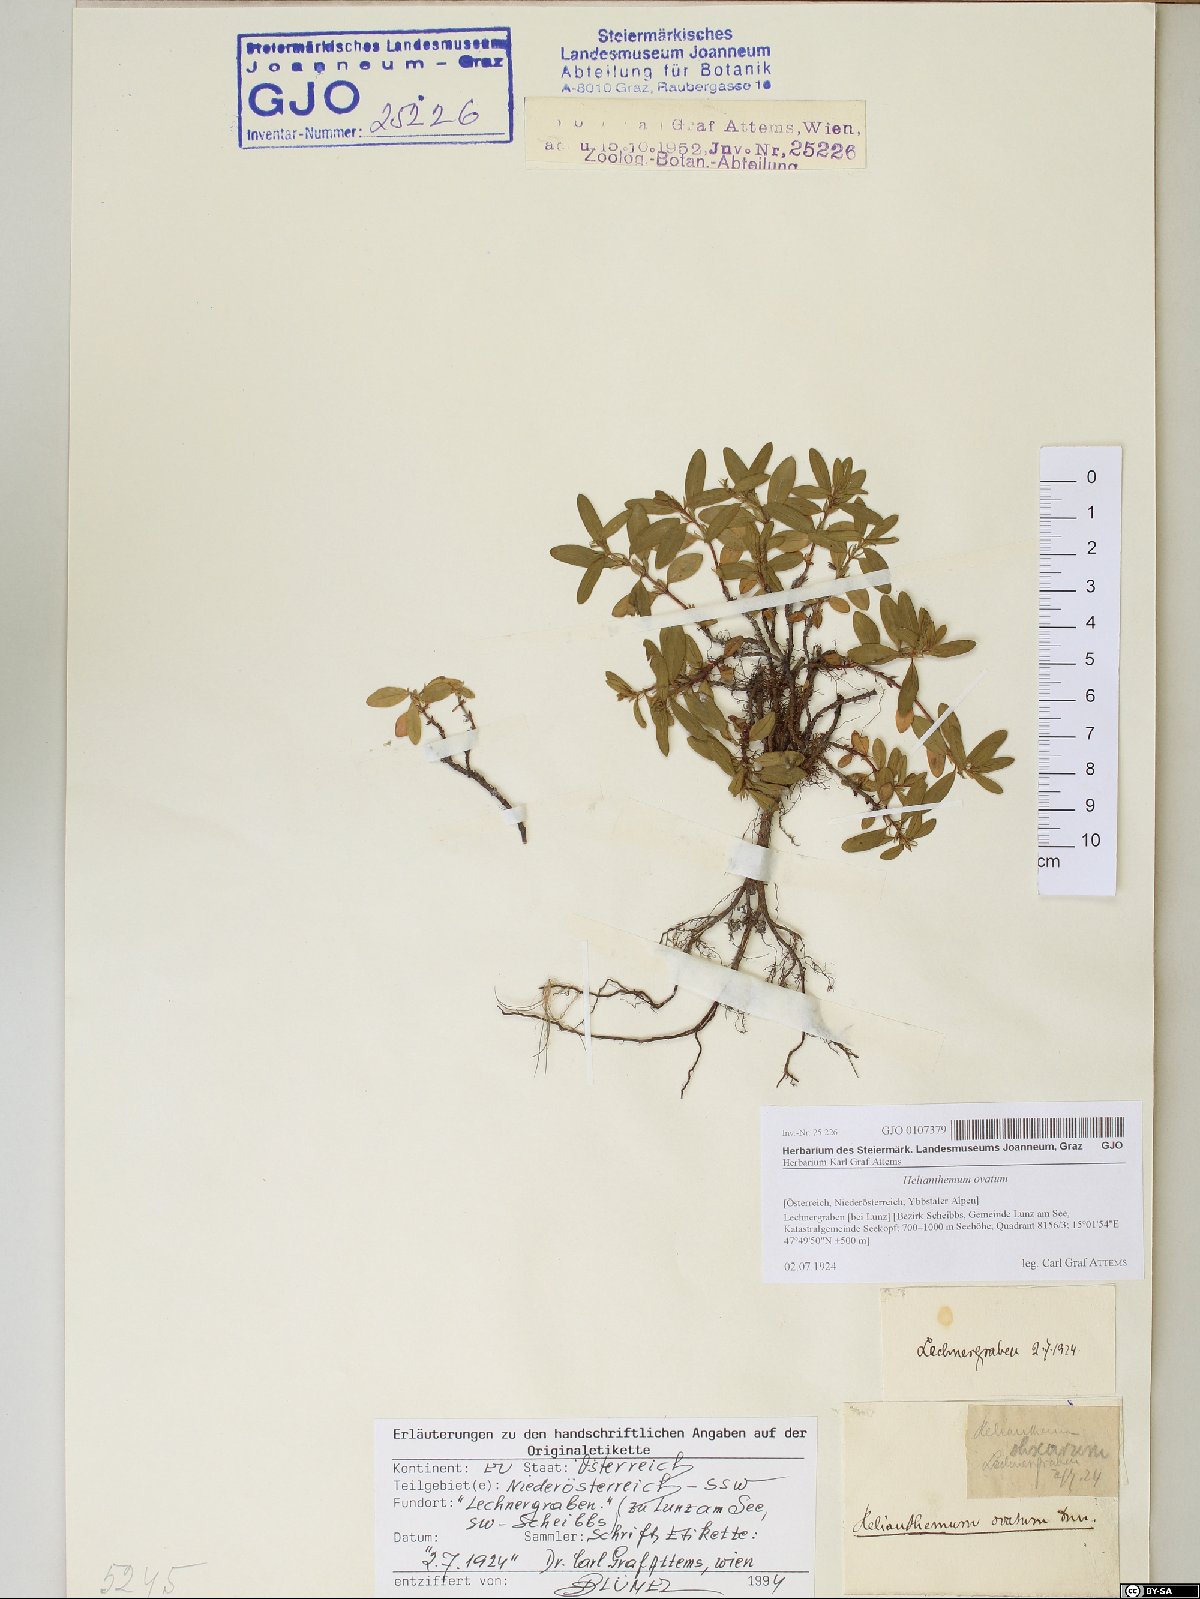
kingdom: Plantae
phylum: Tracheophyta
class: Magnoliopsida
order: Malvales
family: Cistaceae
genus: Helianthemum
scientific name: Helianthemum nummularium
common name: Common rock-rose
